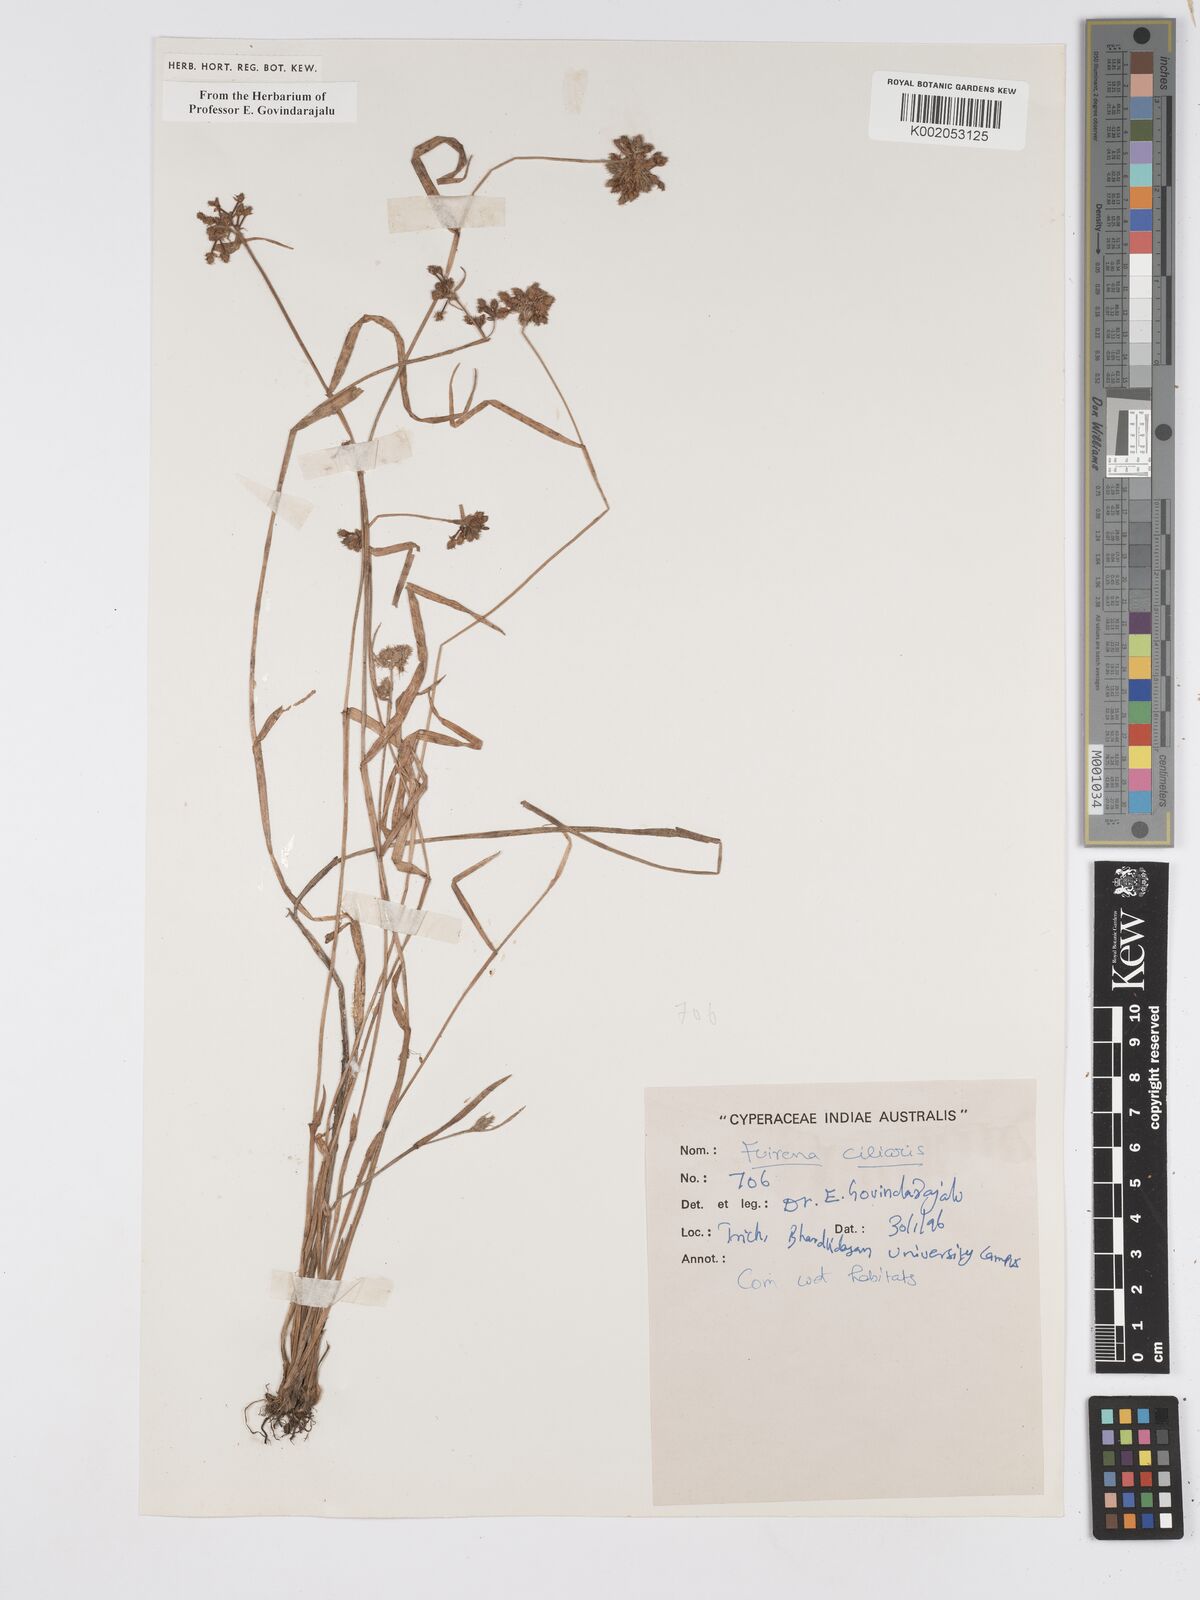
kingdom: Plantae
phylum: Tracheophyta
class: Liliopsida
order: Poales
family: Cyperaceae
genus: Fuirena
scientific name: Fuirena ciliaris
